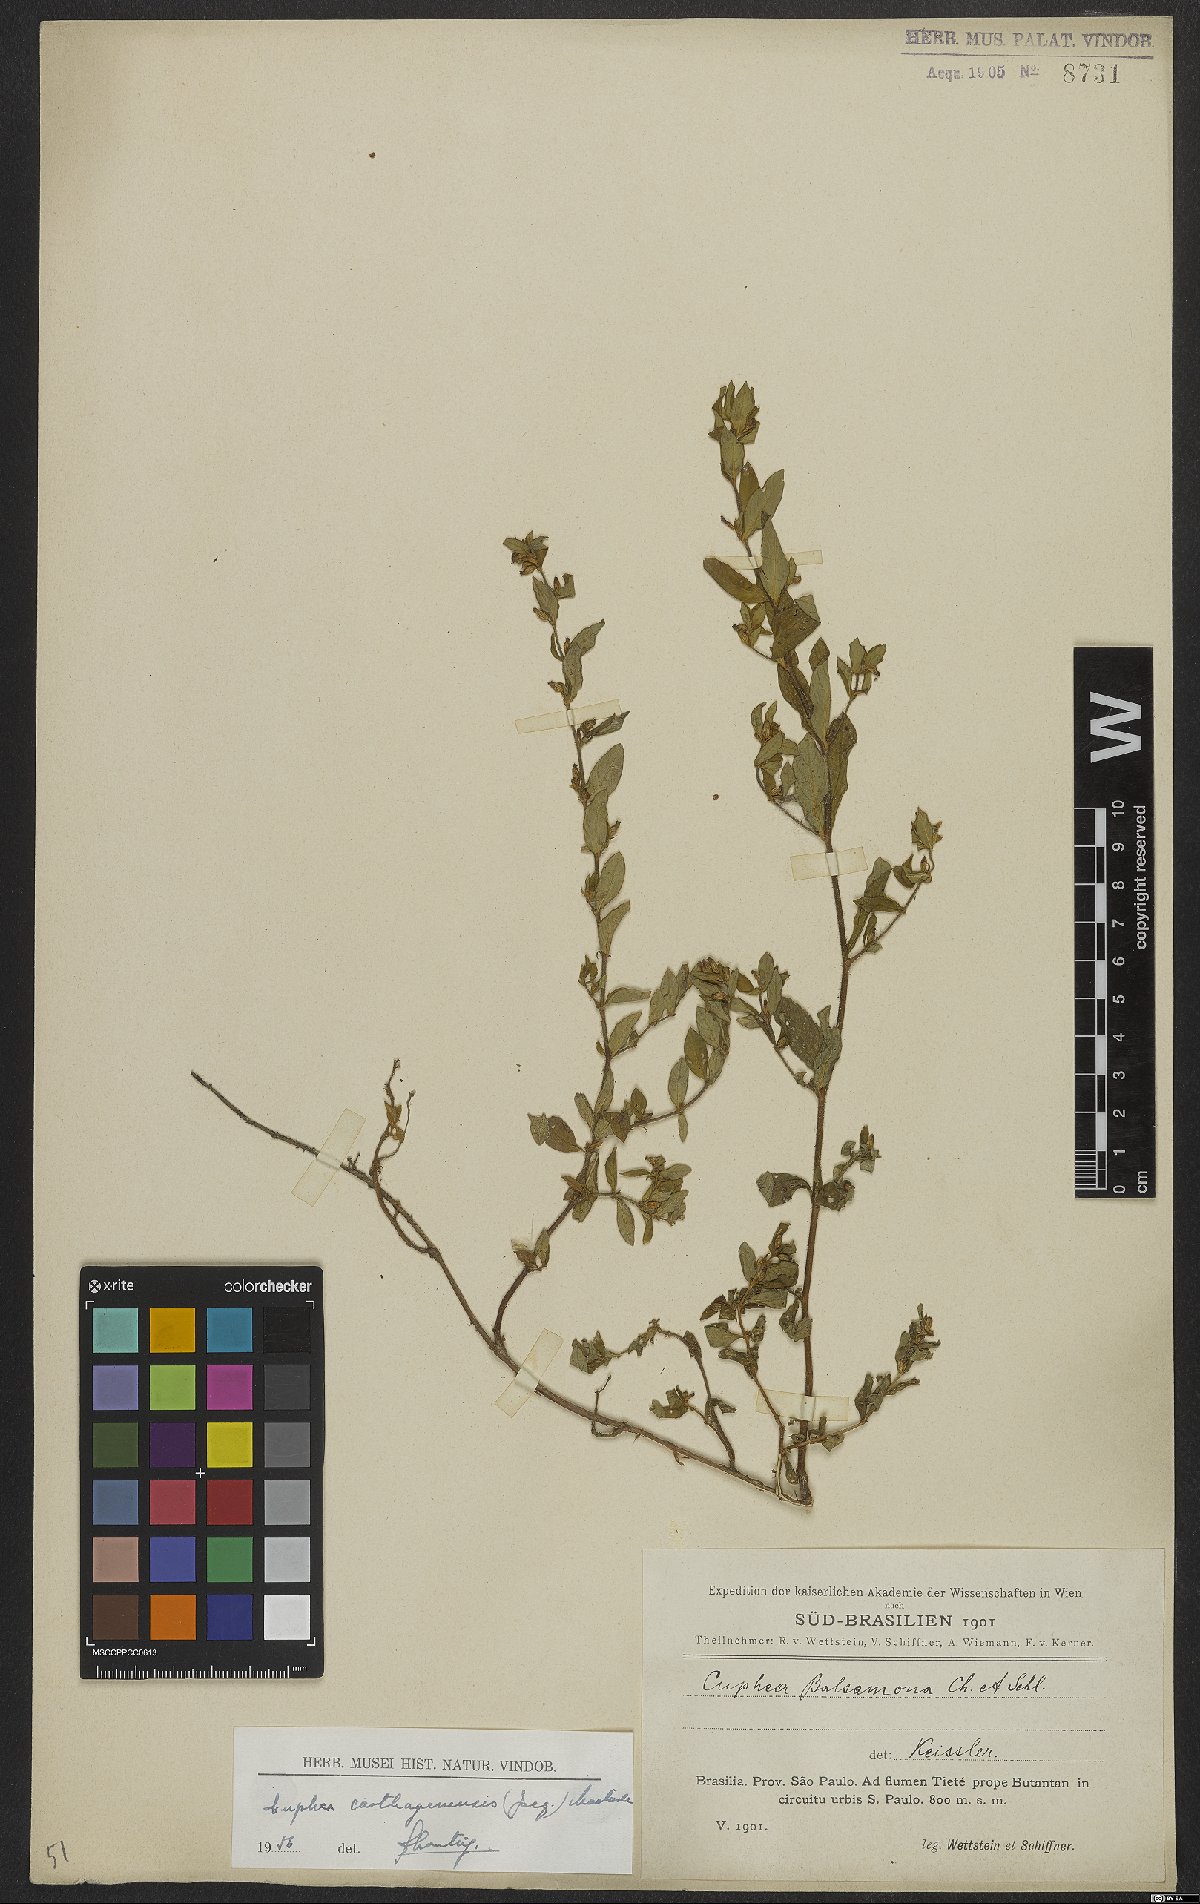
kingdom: Plantae
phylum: Tracheophyta
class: Magnoliopsida
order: Myrtales
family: Lythraceae
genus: Cuphea
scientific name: Cuphea carthagenensis
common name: Colombian waxweed
